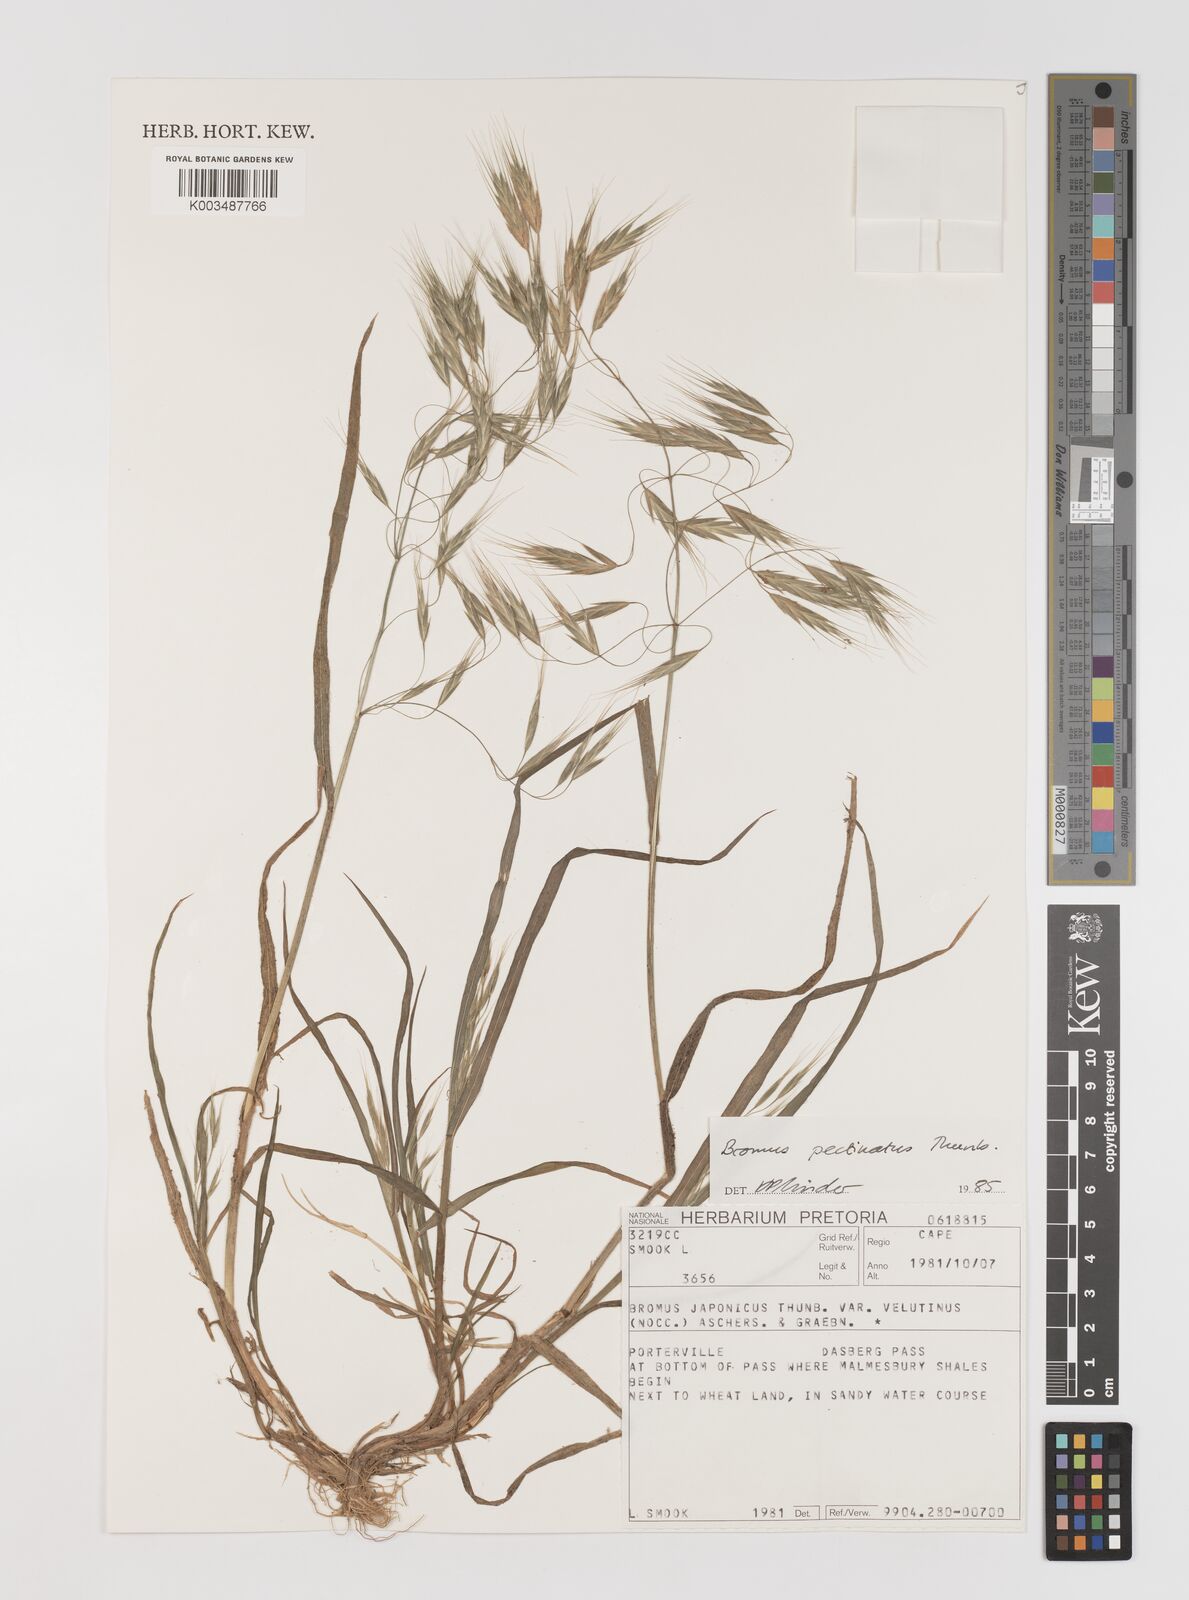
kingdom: Plantae
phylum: Tracheophyta
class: Liliopsida
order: Poales
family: Poaceae
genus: Bromus
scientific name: Bromus pectinatus
